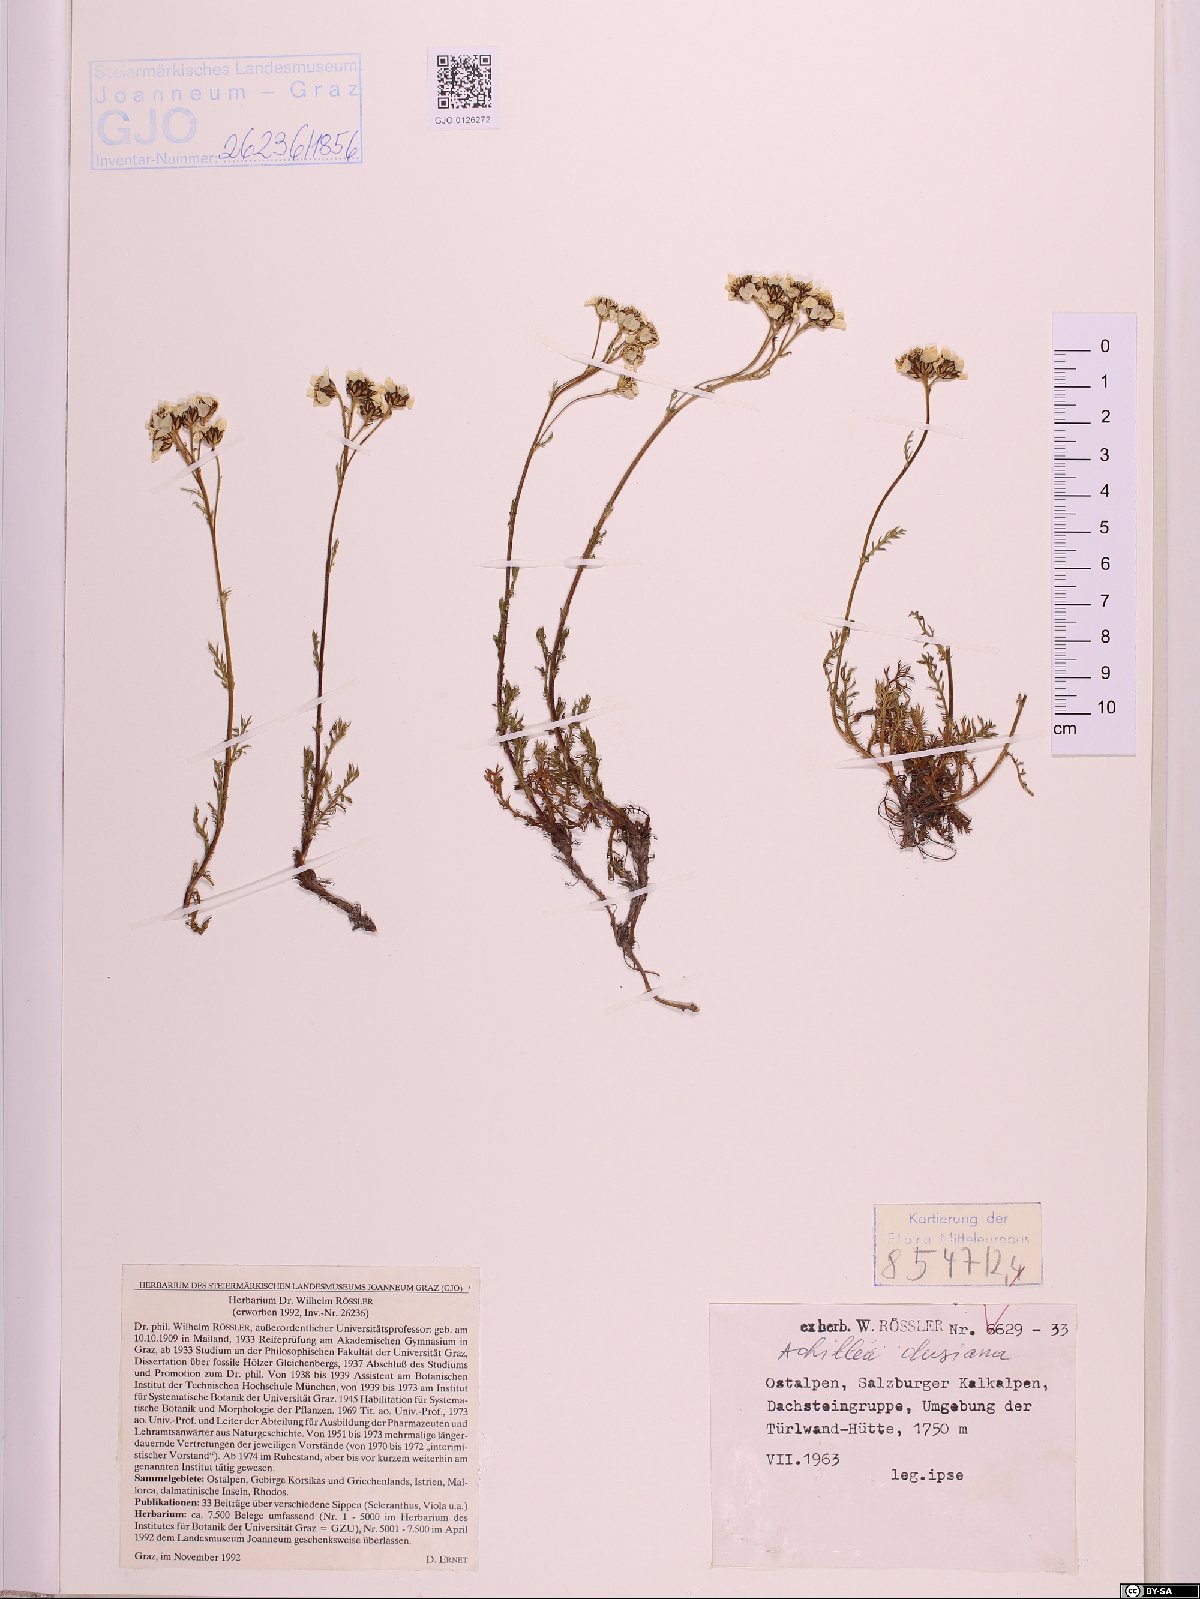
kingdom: Plantae
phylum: Tracheophyta
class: Magnoliopsida
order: Asterales
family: Asteraceae
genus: Achillea
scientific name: Achillea clusiana
